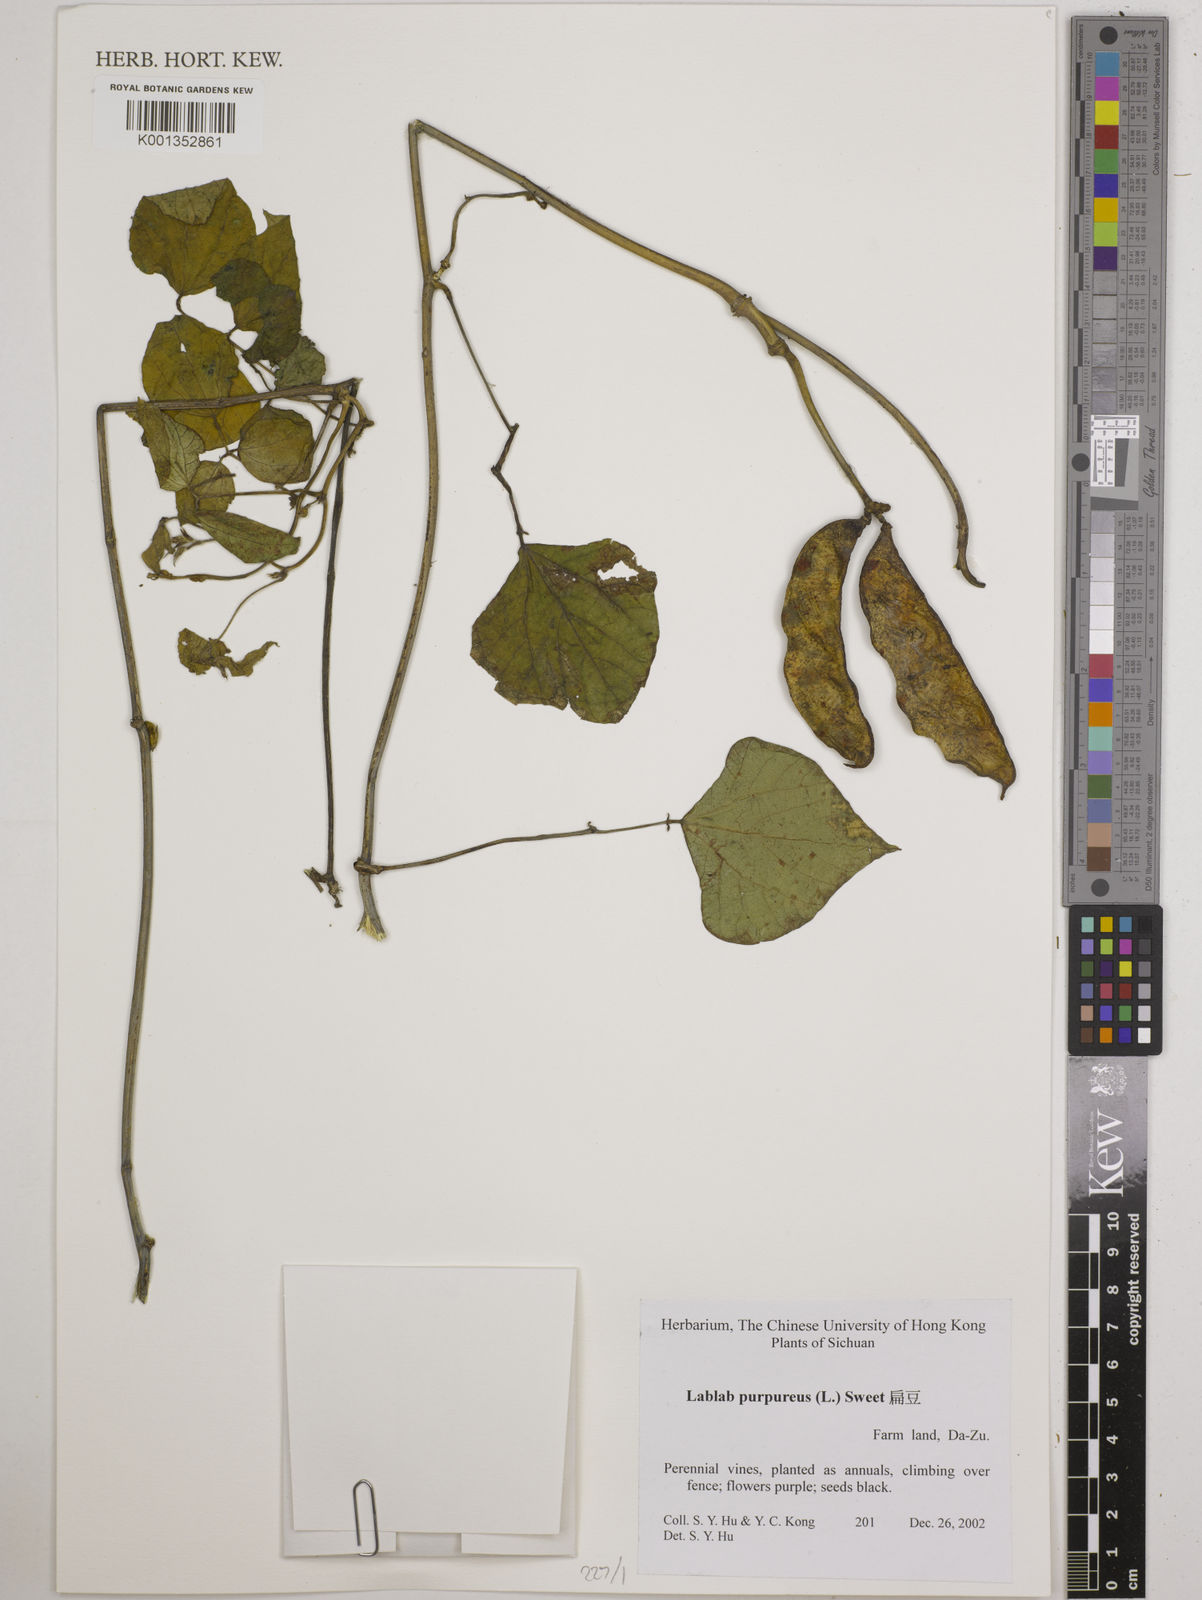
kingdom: Plantae
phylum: Tracheophyta
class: Magnoliopsida
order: Fabales
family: Fabaceae
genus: Lablab
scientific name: Lablab purpureus
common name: Lablab-bean
